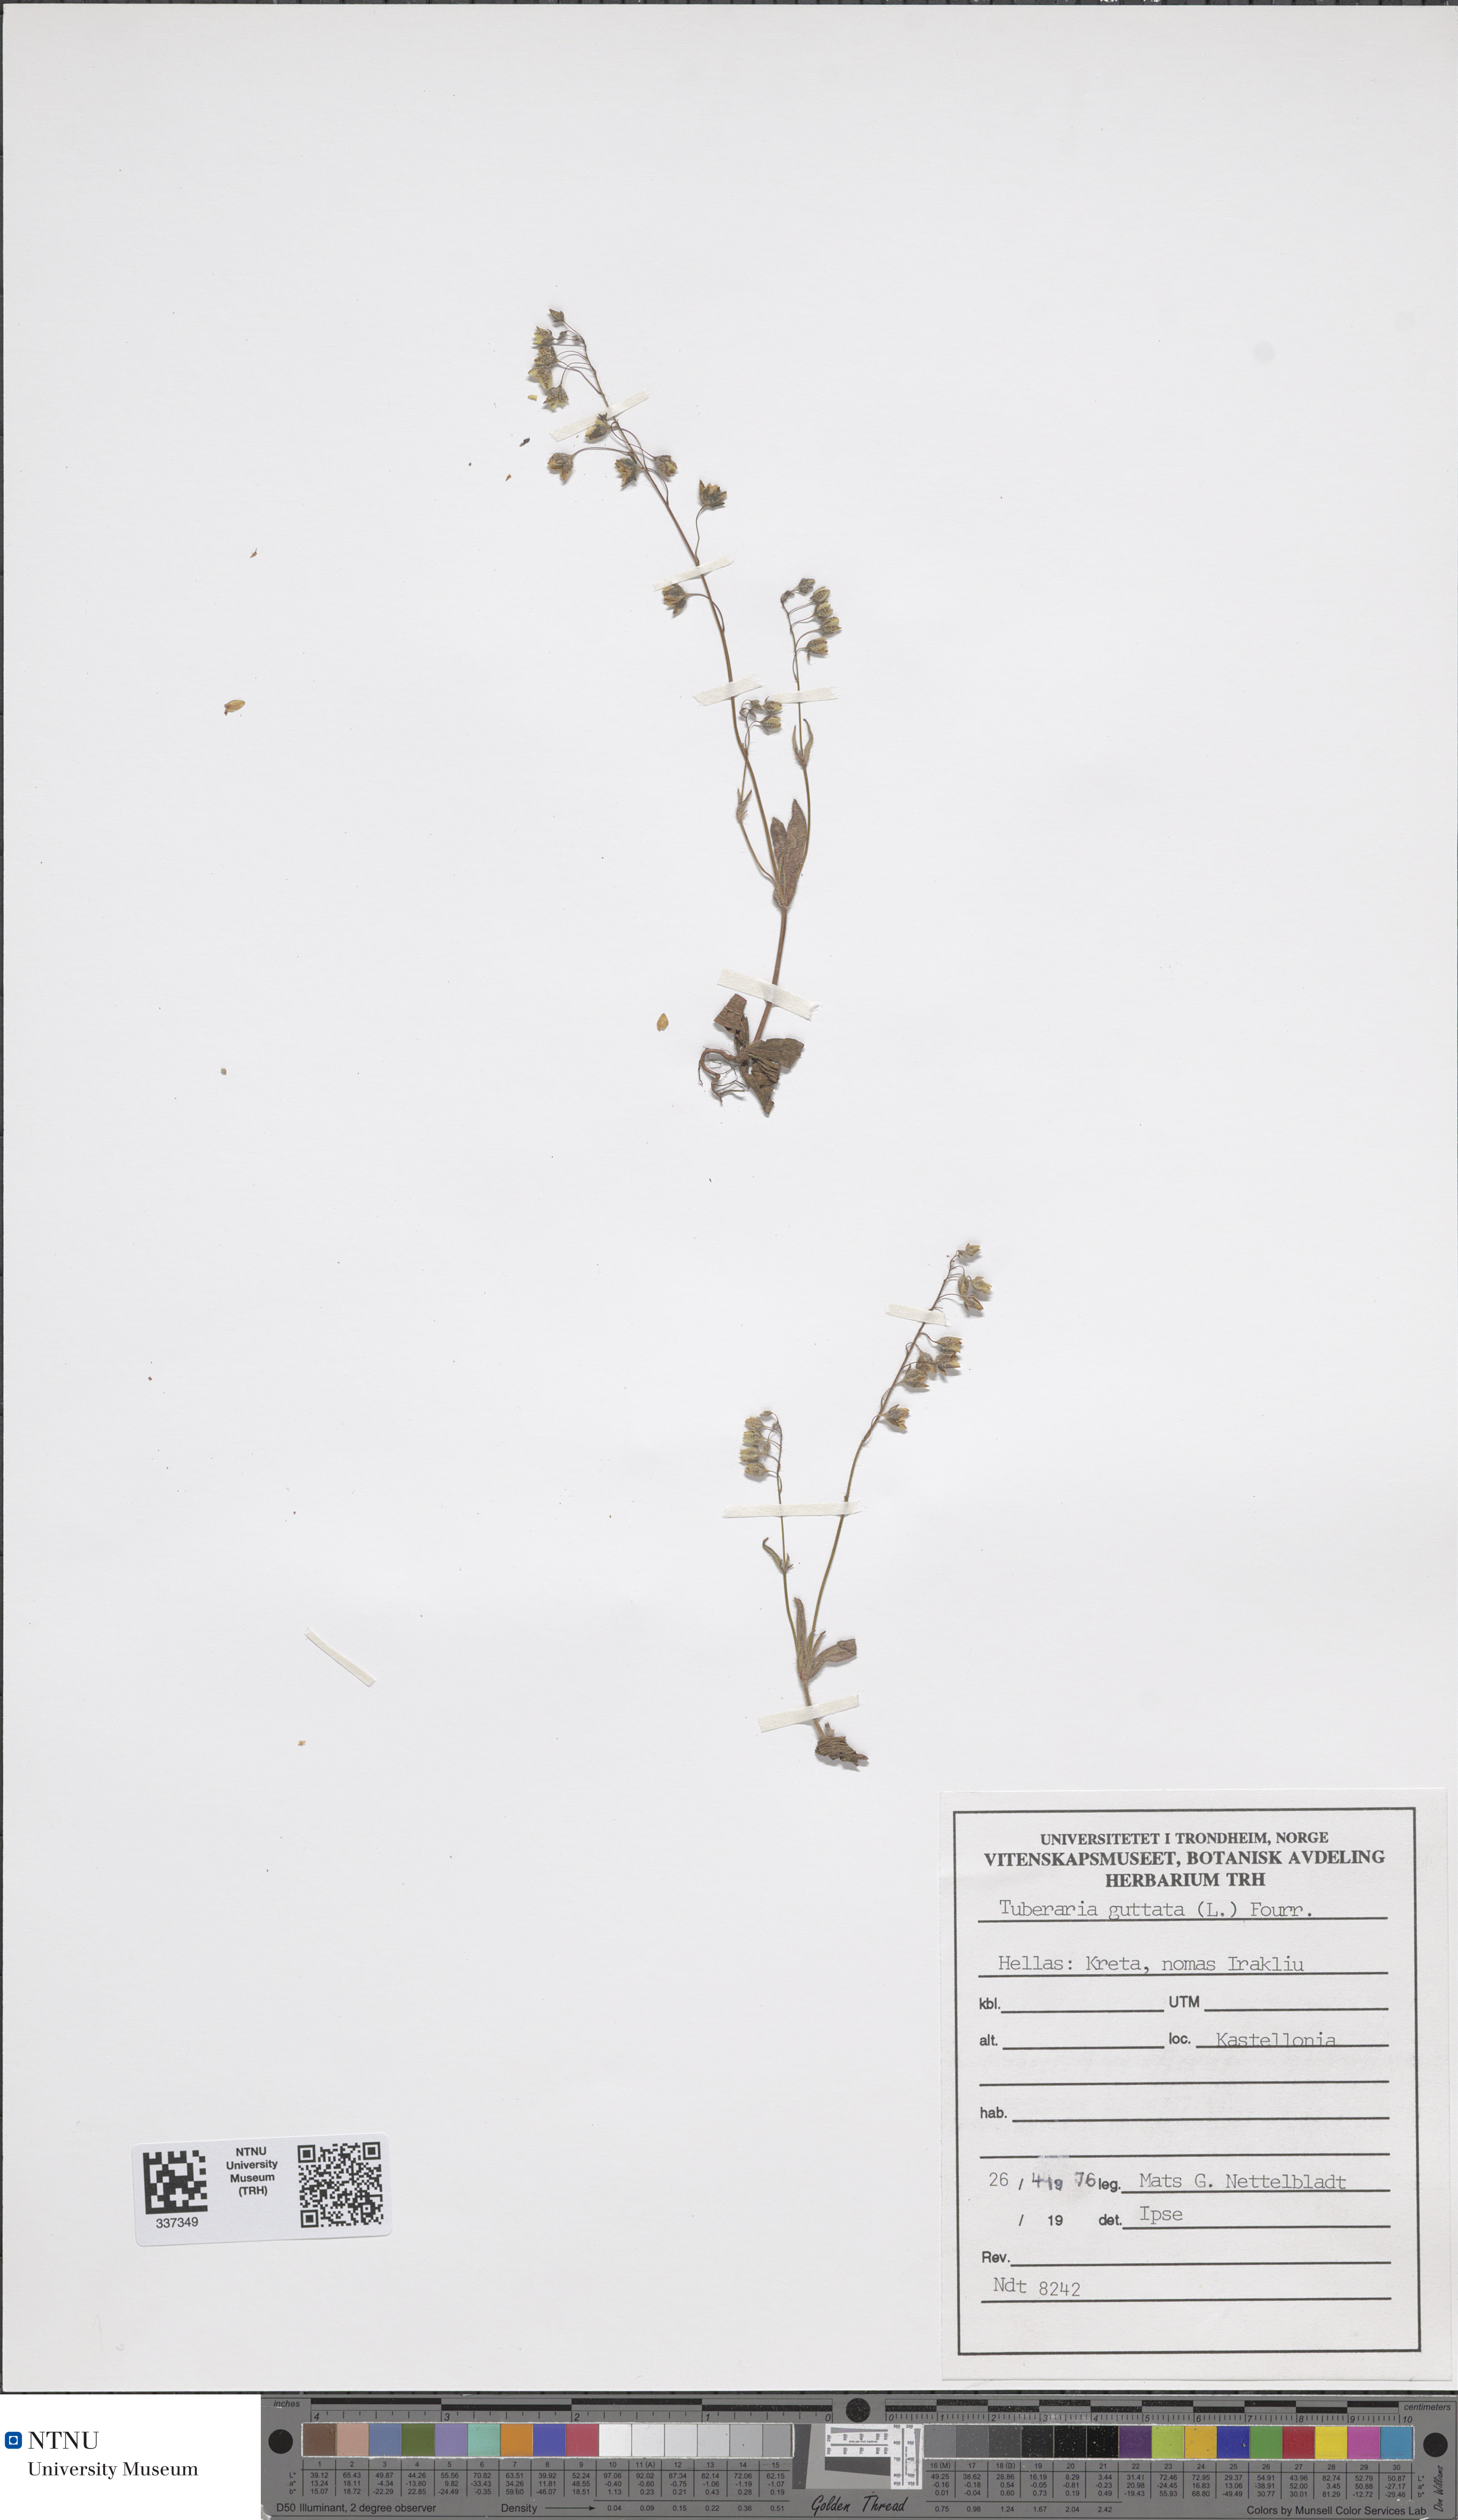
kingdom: Plantae
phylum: Tracheophyta
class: Magnoliopsida
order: Malvales
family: Cistaceae
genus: Tuberaria
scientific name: Tuberaria guttata
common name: Spotted rock-rose
